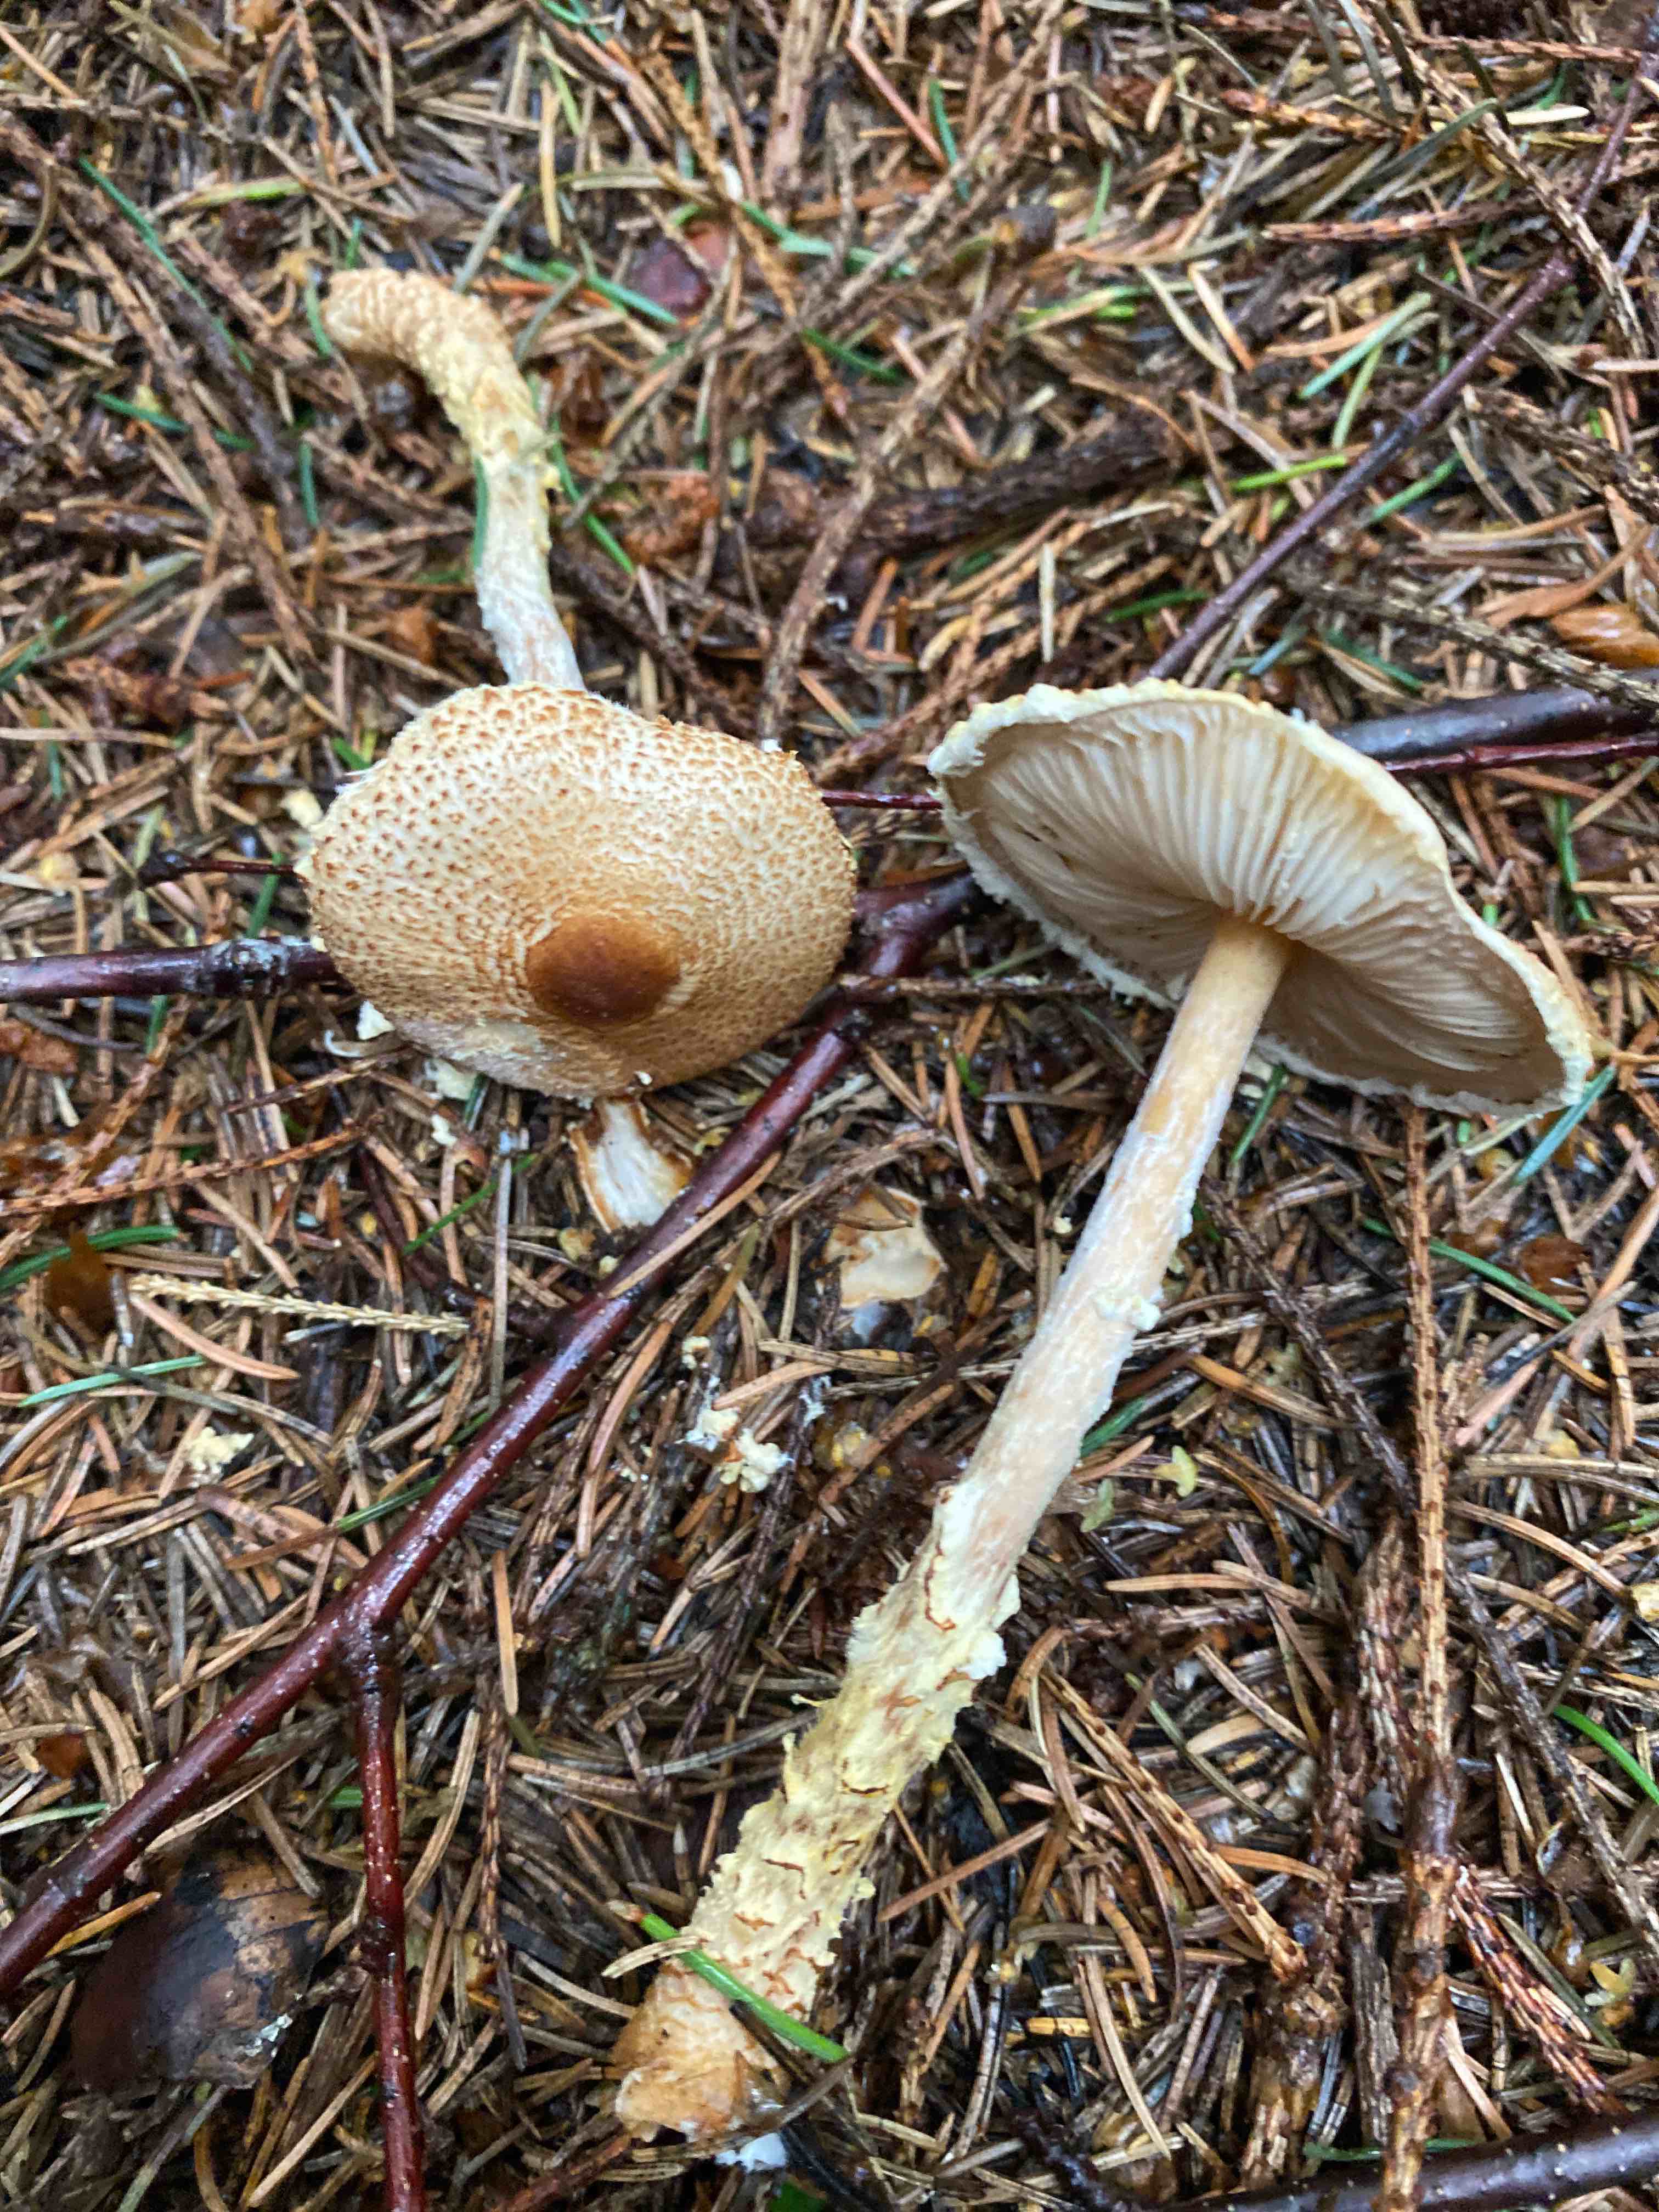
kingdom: Fungi
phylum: Basidiomycota
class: Agaricomycetes
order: Agaricales
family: Agaricaceae
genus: Lepiota
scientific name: Lepiota magnispora
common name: gulfnugget parasolhat
